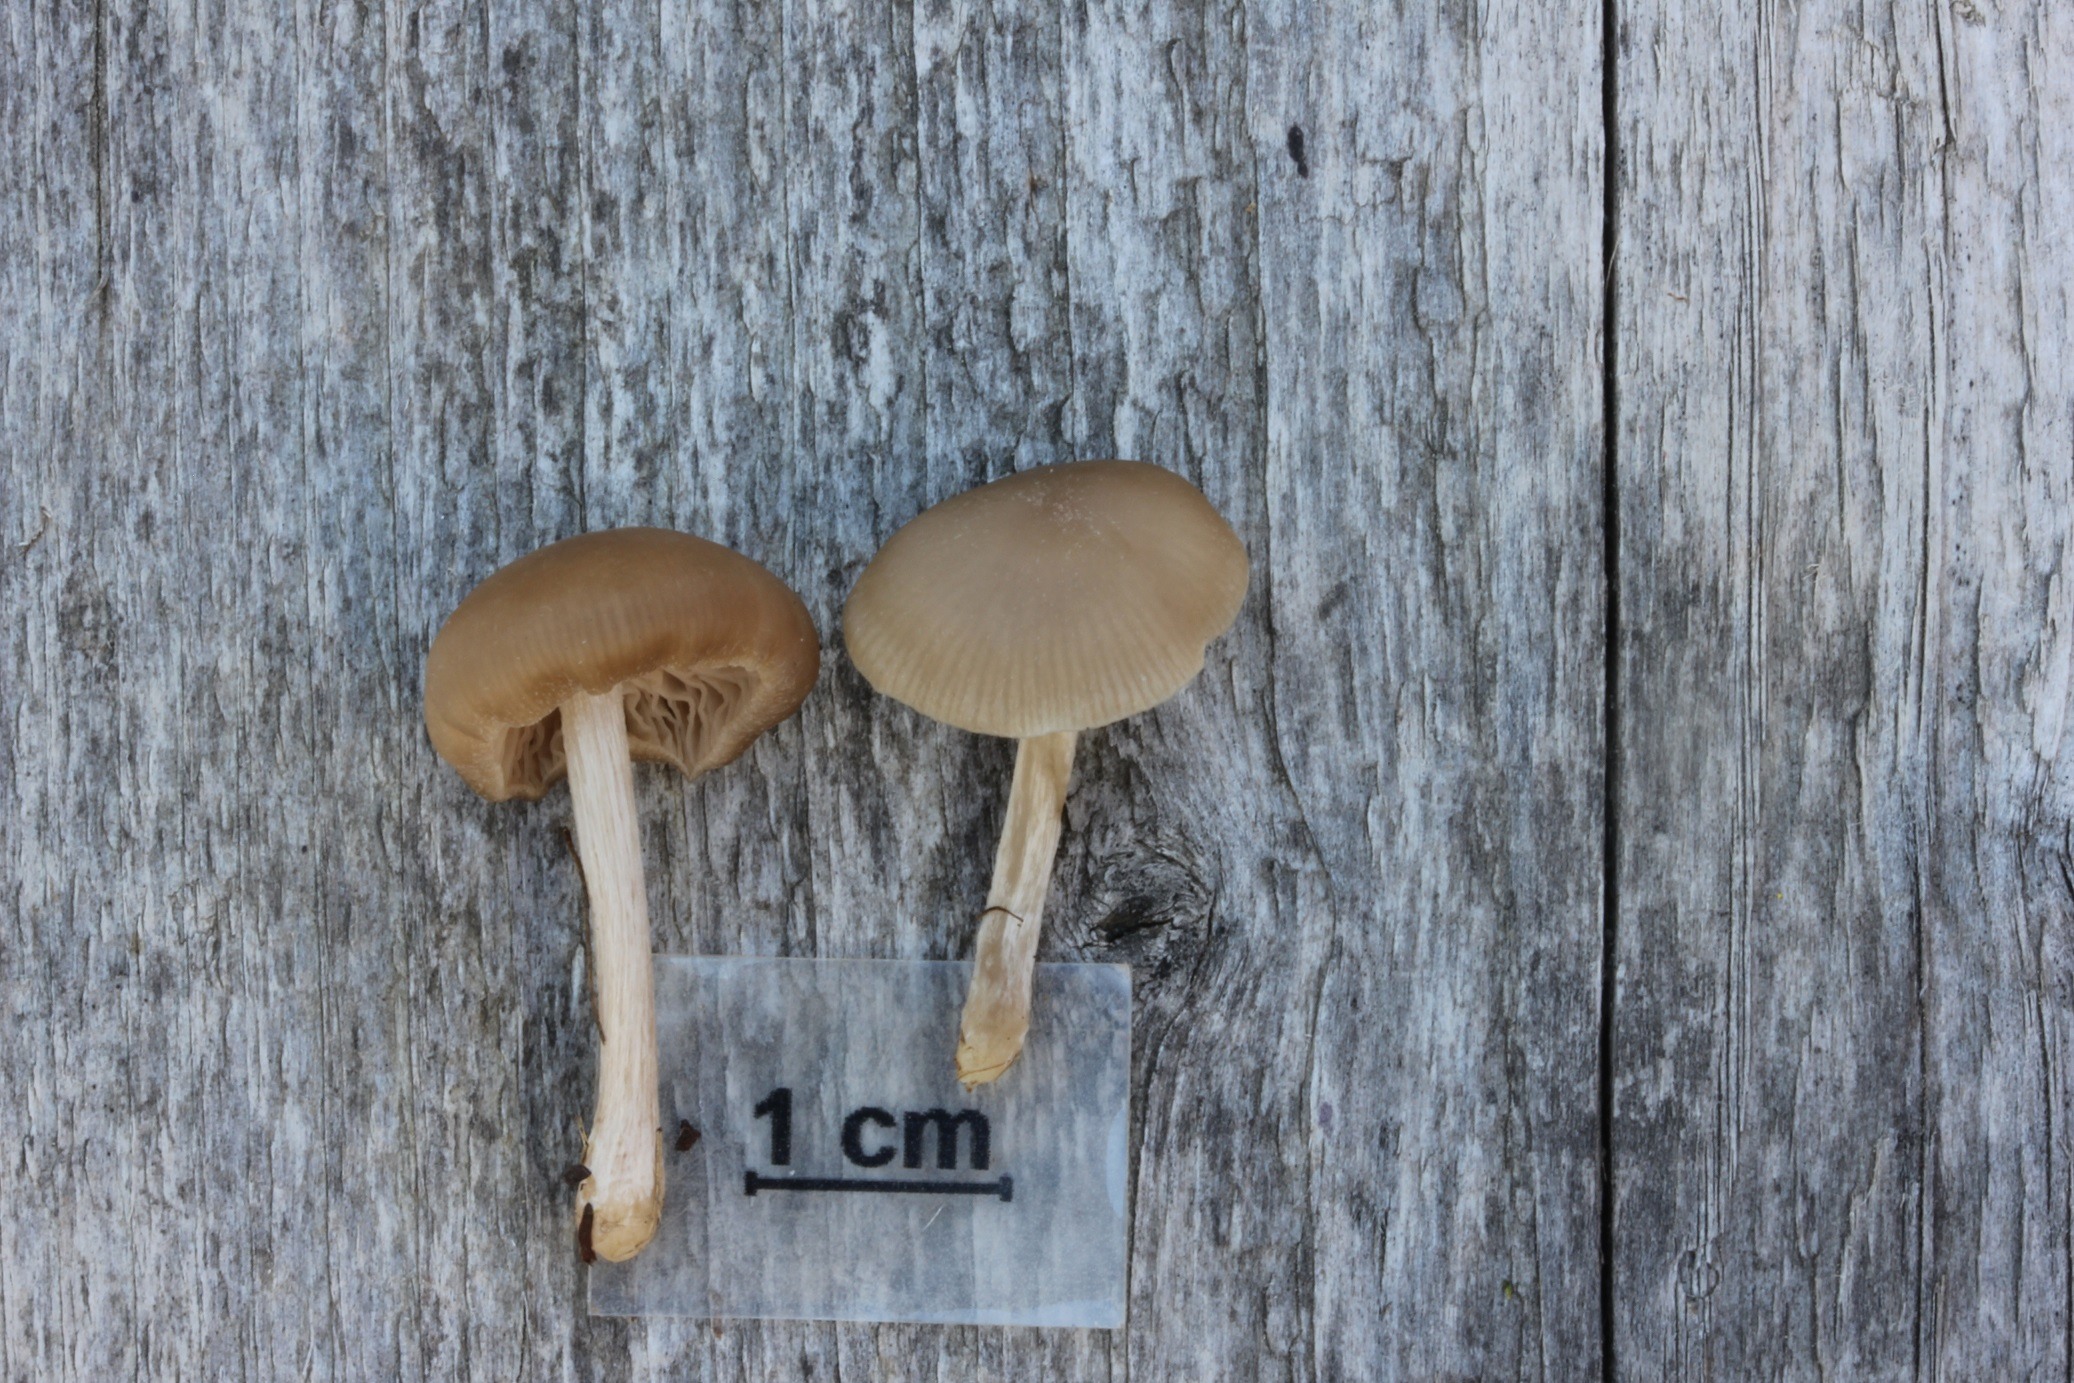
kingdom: Fungi
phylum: Basidiomycota
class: Agaricomycetes
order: Agaricales
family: Entolomataceae
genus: Entoloma
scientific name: Entoloma sericeum
